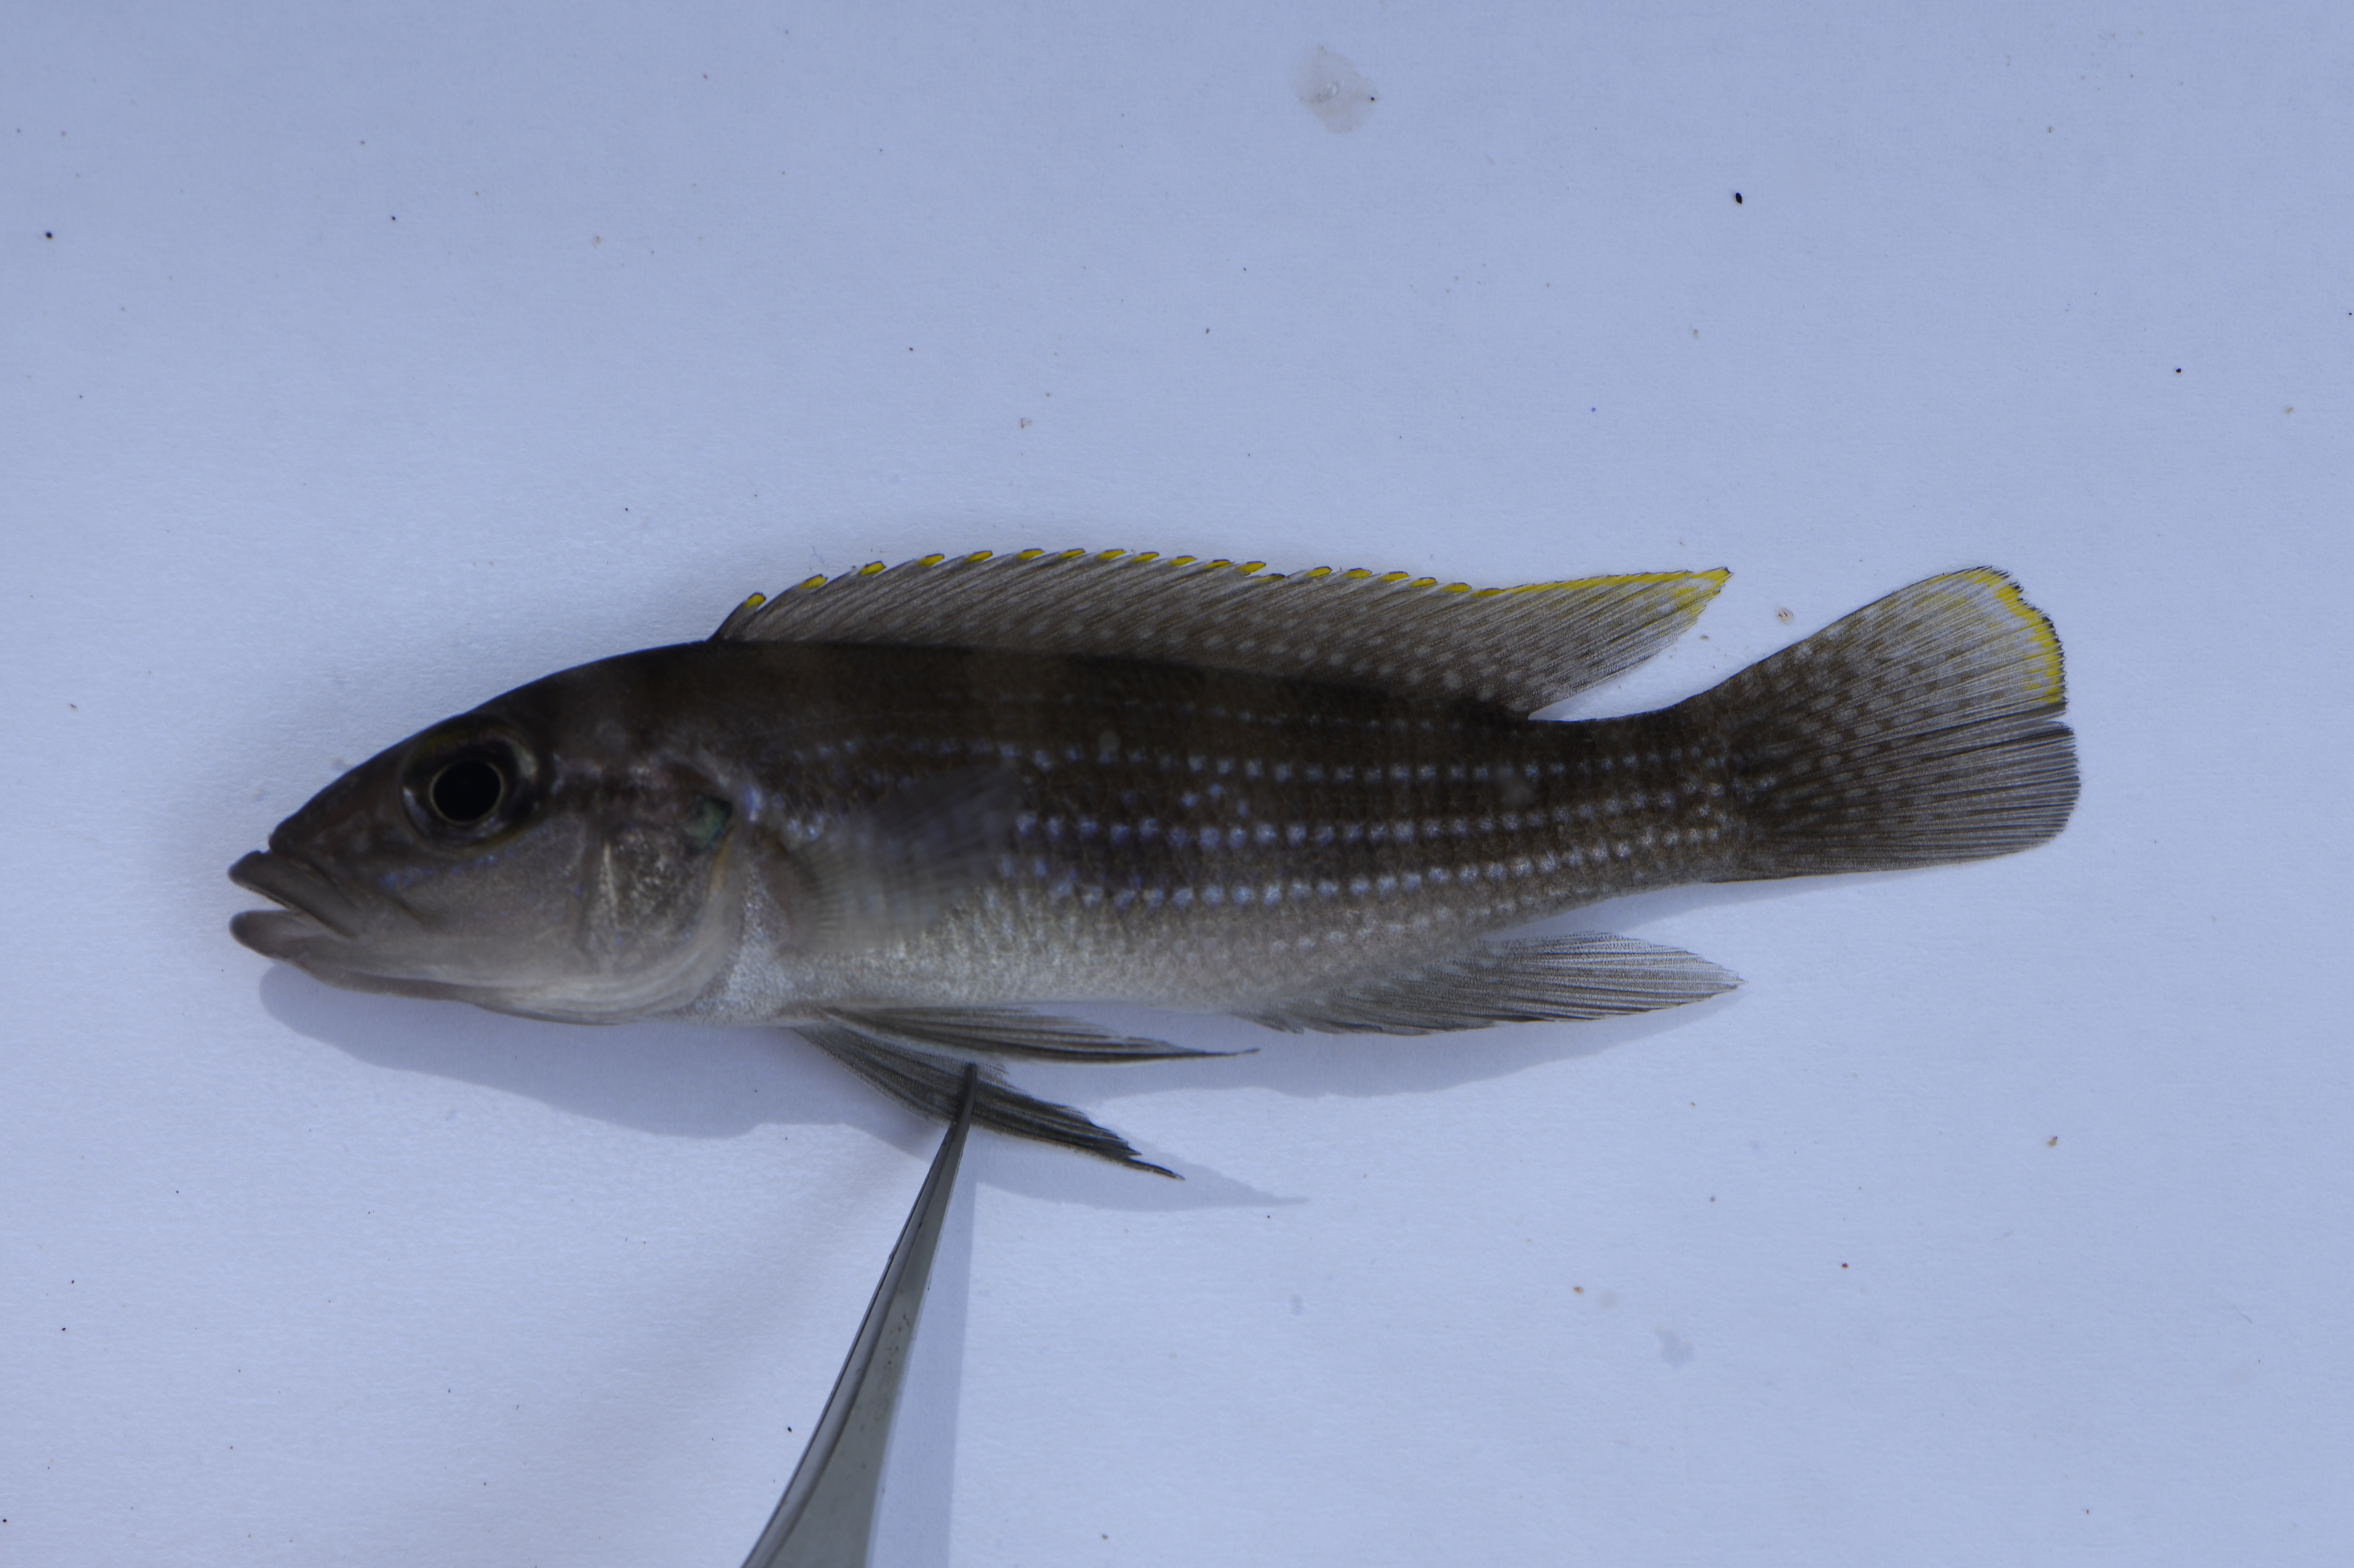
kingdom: Animalia
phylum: Chordata
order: Perciformes
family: Cichlidae
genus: Neolamprologus
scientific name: Neolamprologus tetracanthus
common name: Fourspine cichlid
